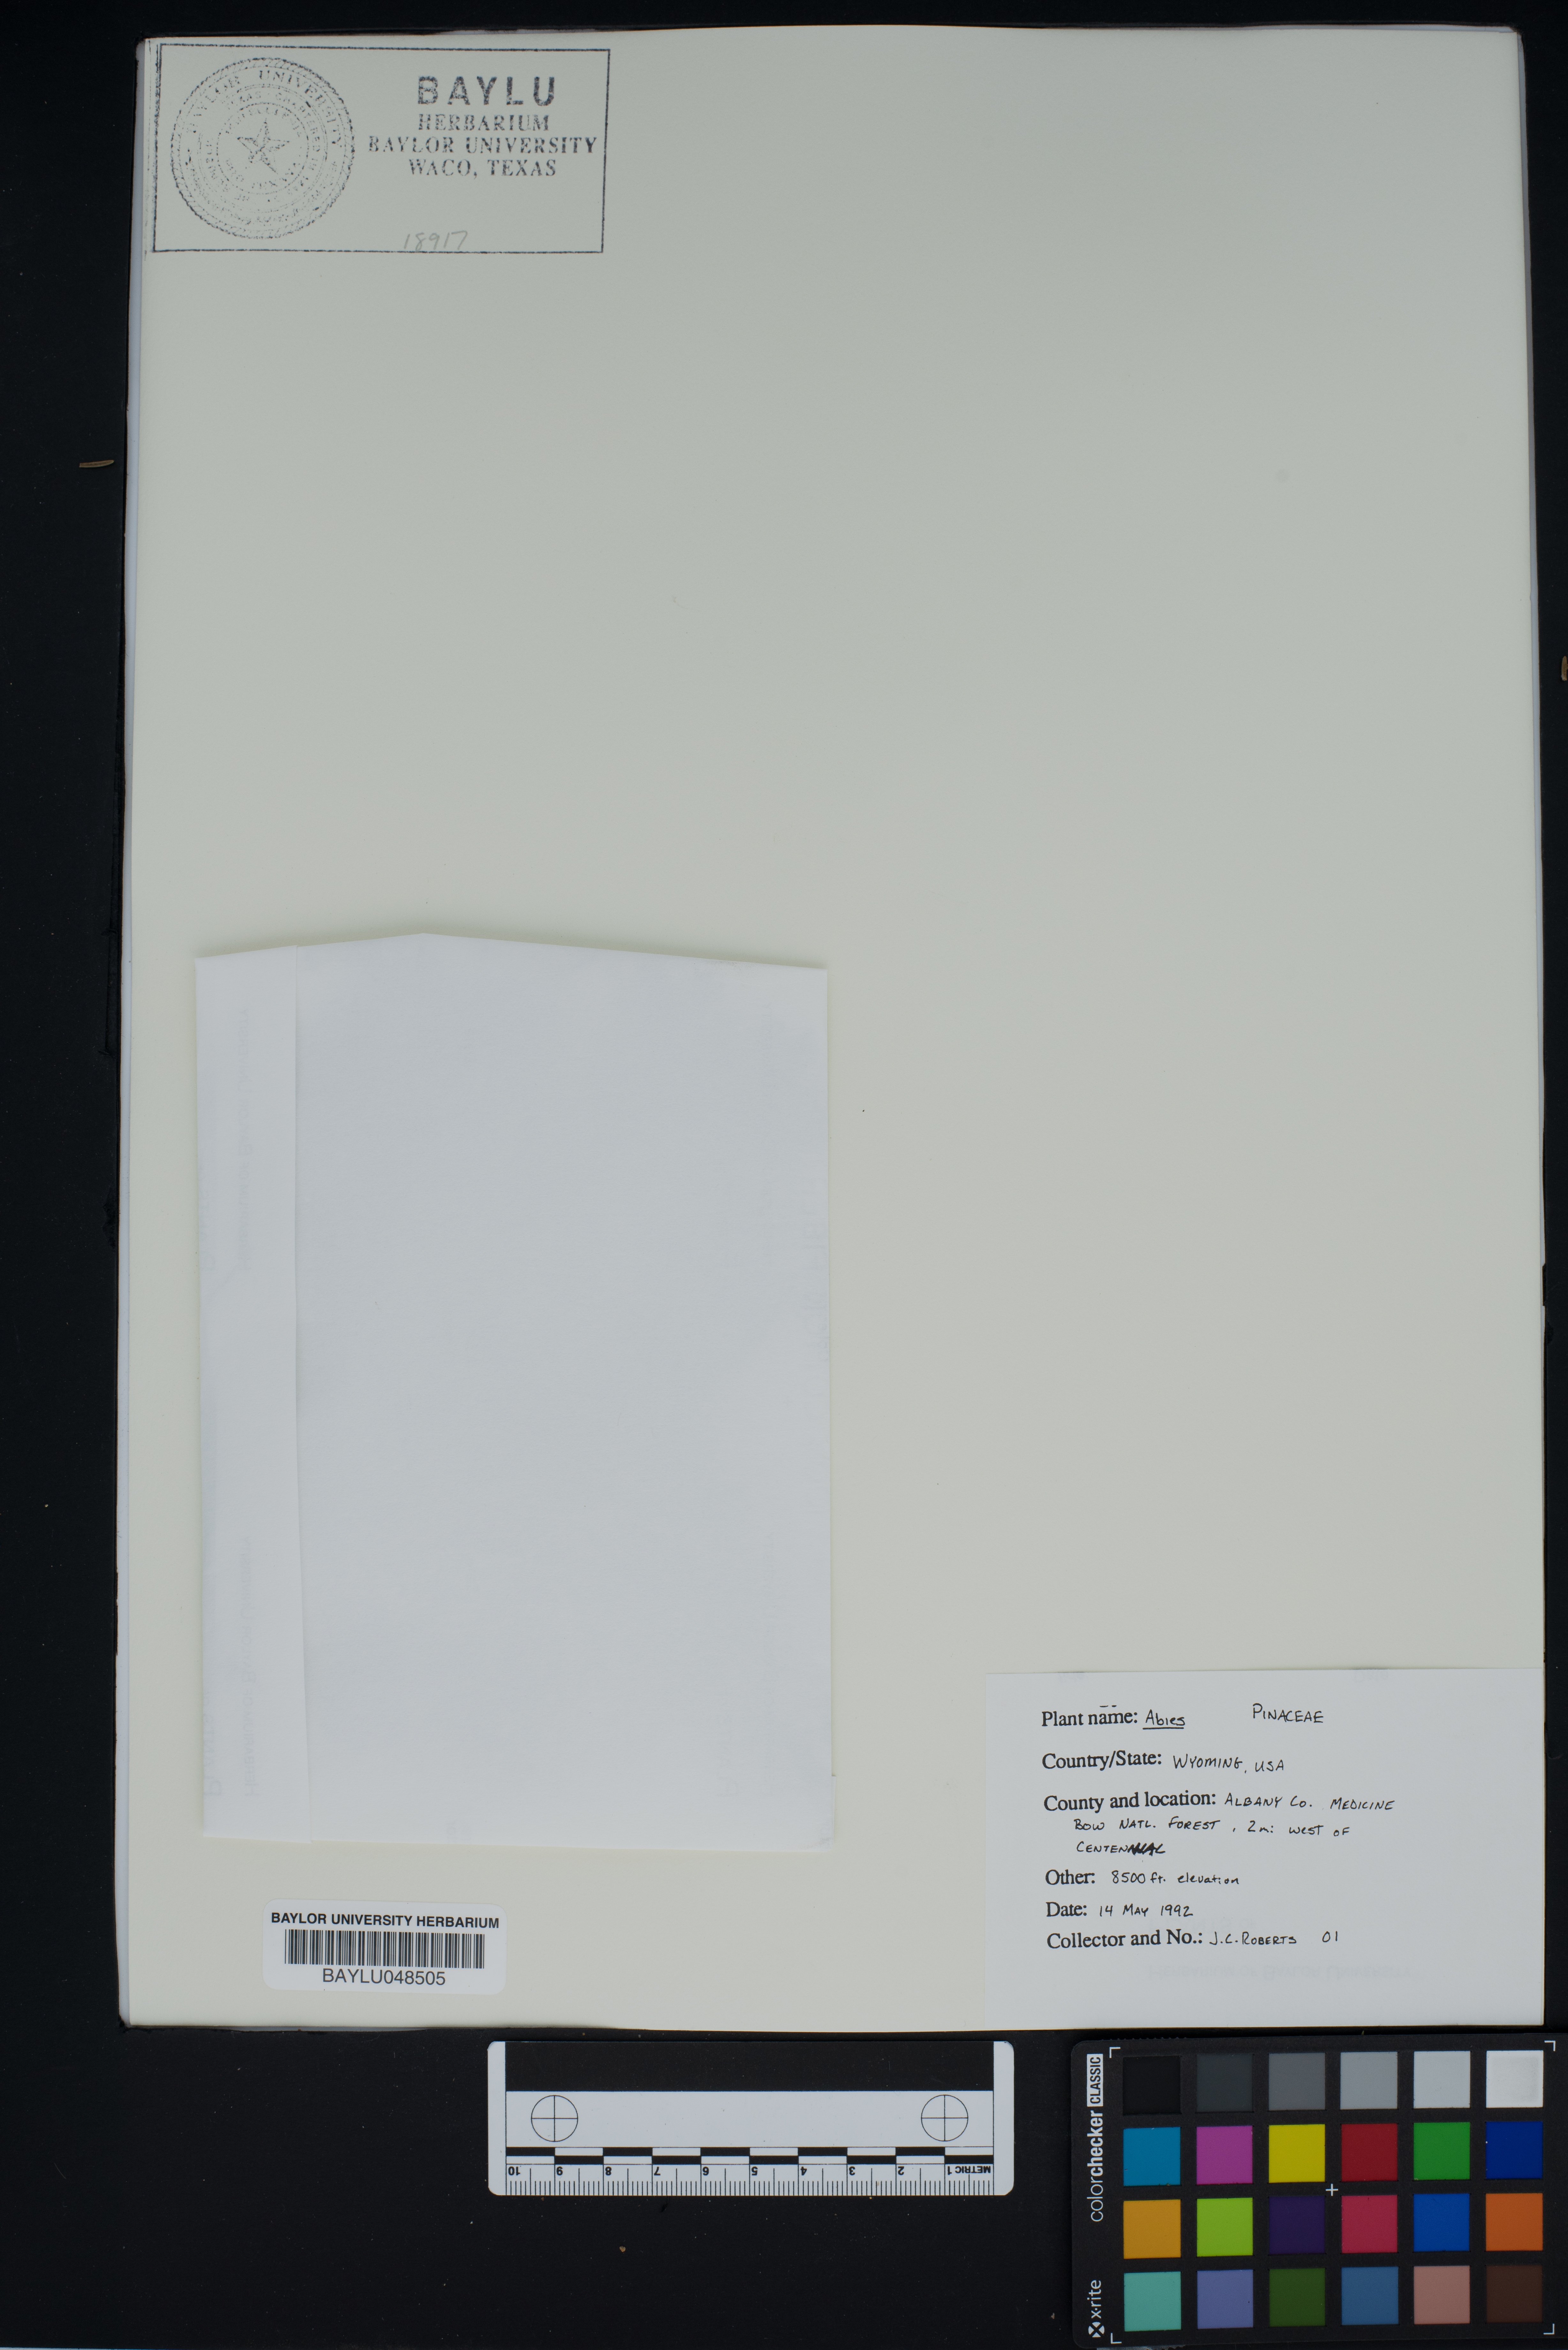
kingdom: Plantae
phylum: Tracheophyta
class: Pinopsida
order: Pinales
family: Pinaceae
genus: Abies
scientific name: Abies
